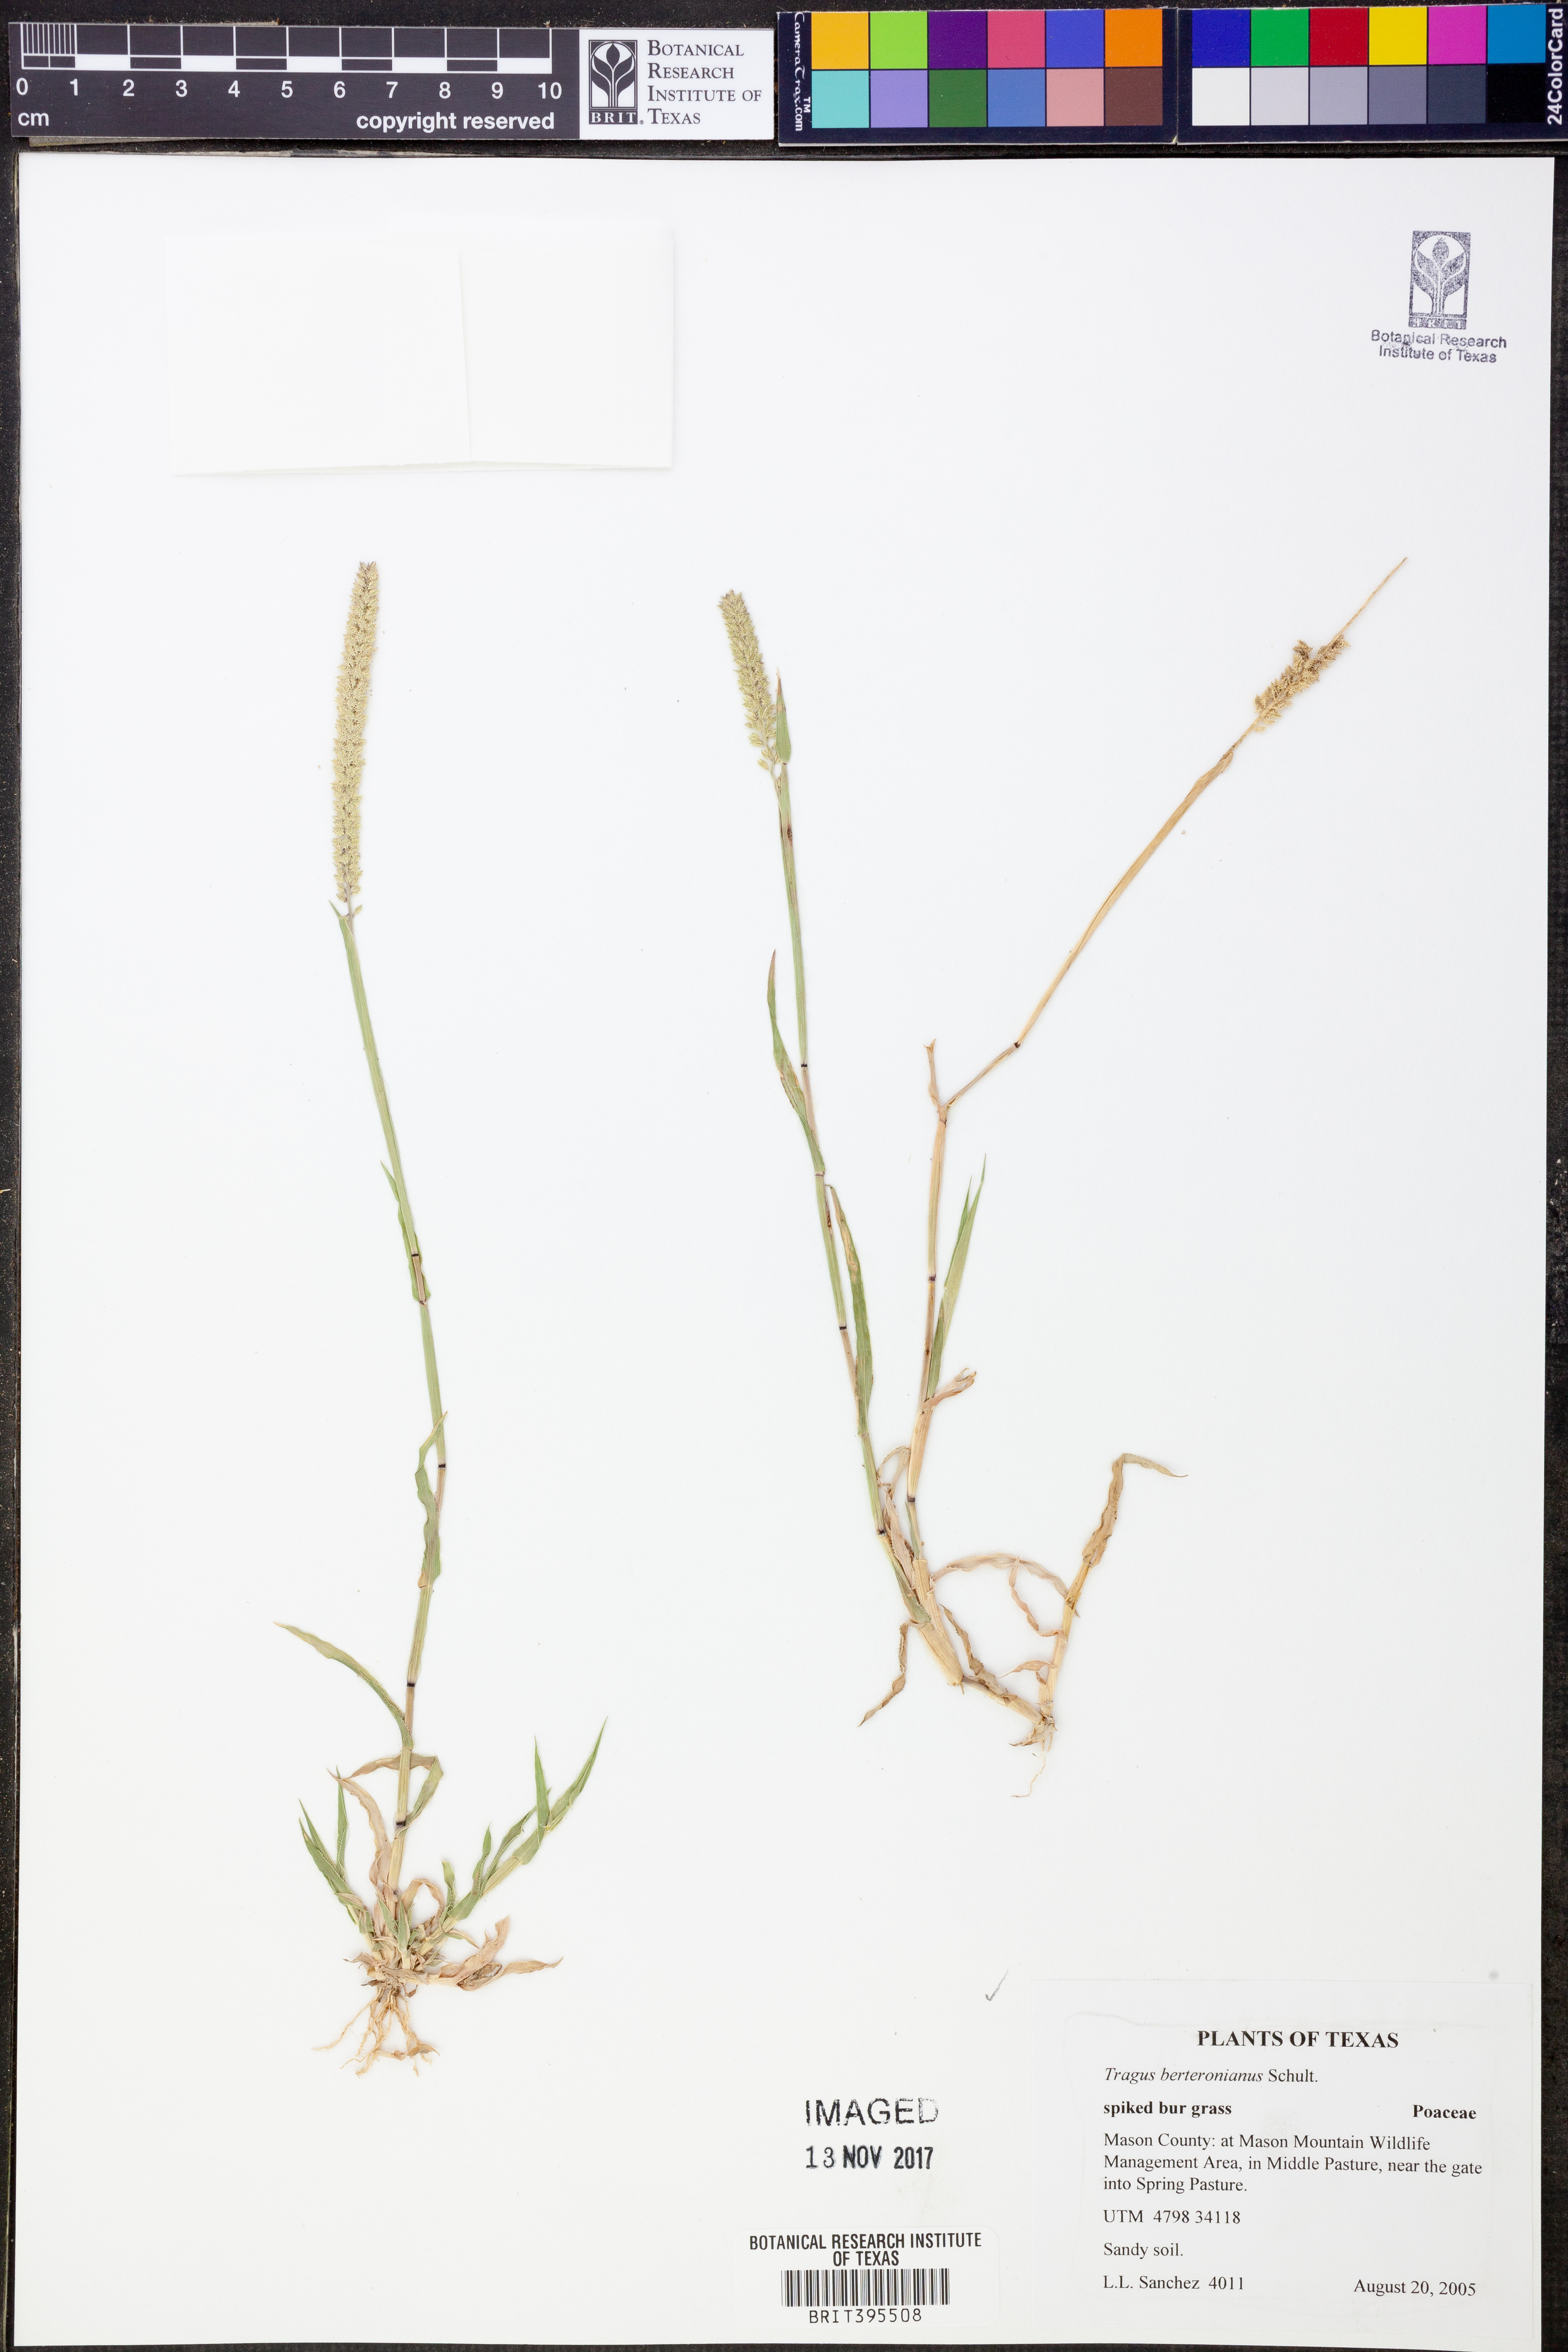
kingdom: Plantae
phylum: Tracheophyta
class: Liliopsida
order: Poales
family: Poaceae
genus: Tragus
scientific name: Tragus berteronianus
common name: African bur-grass
